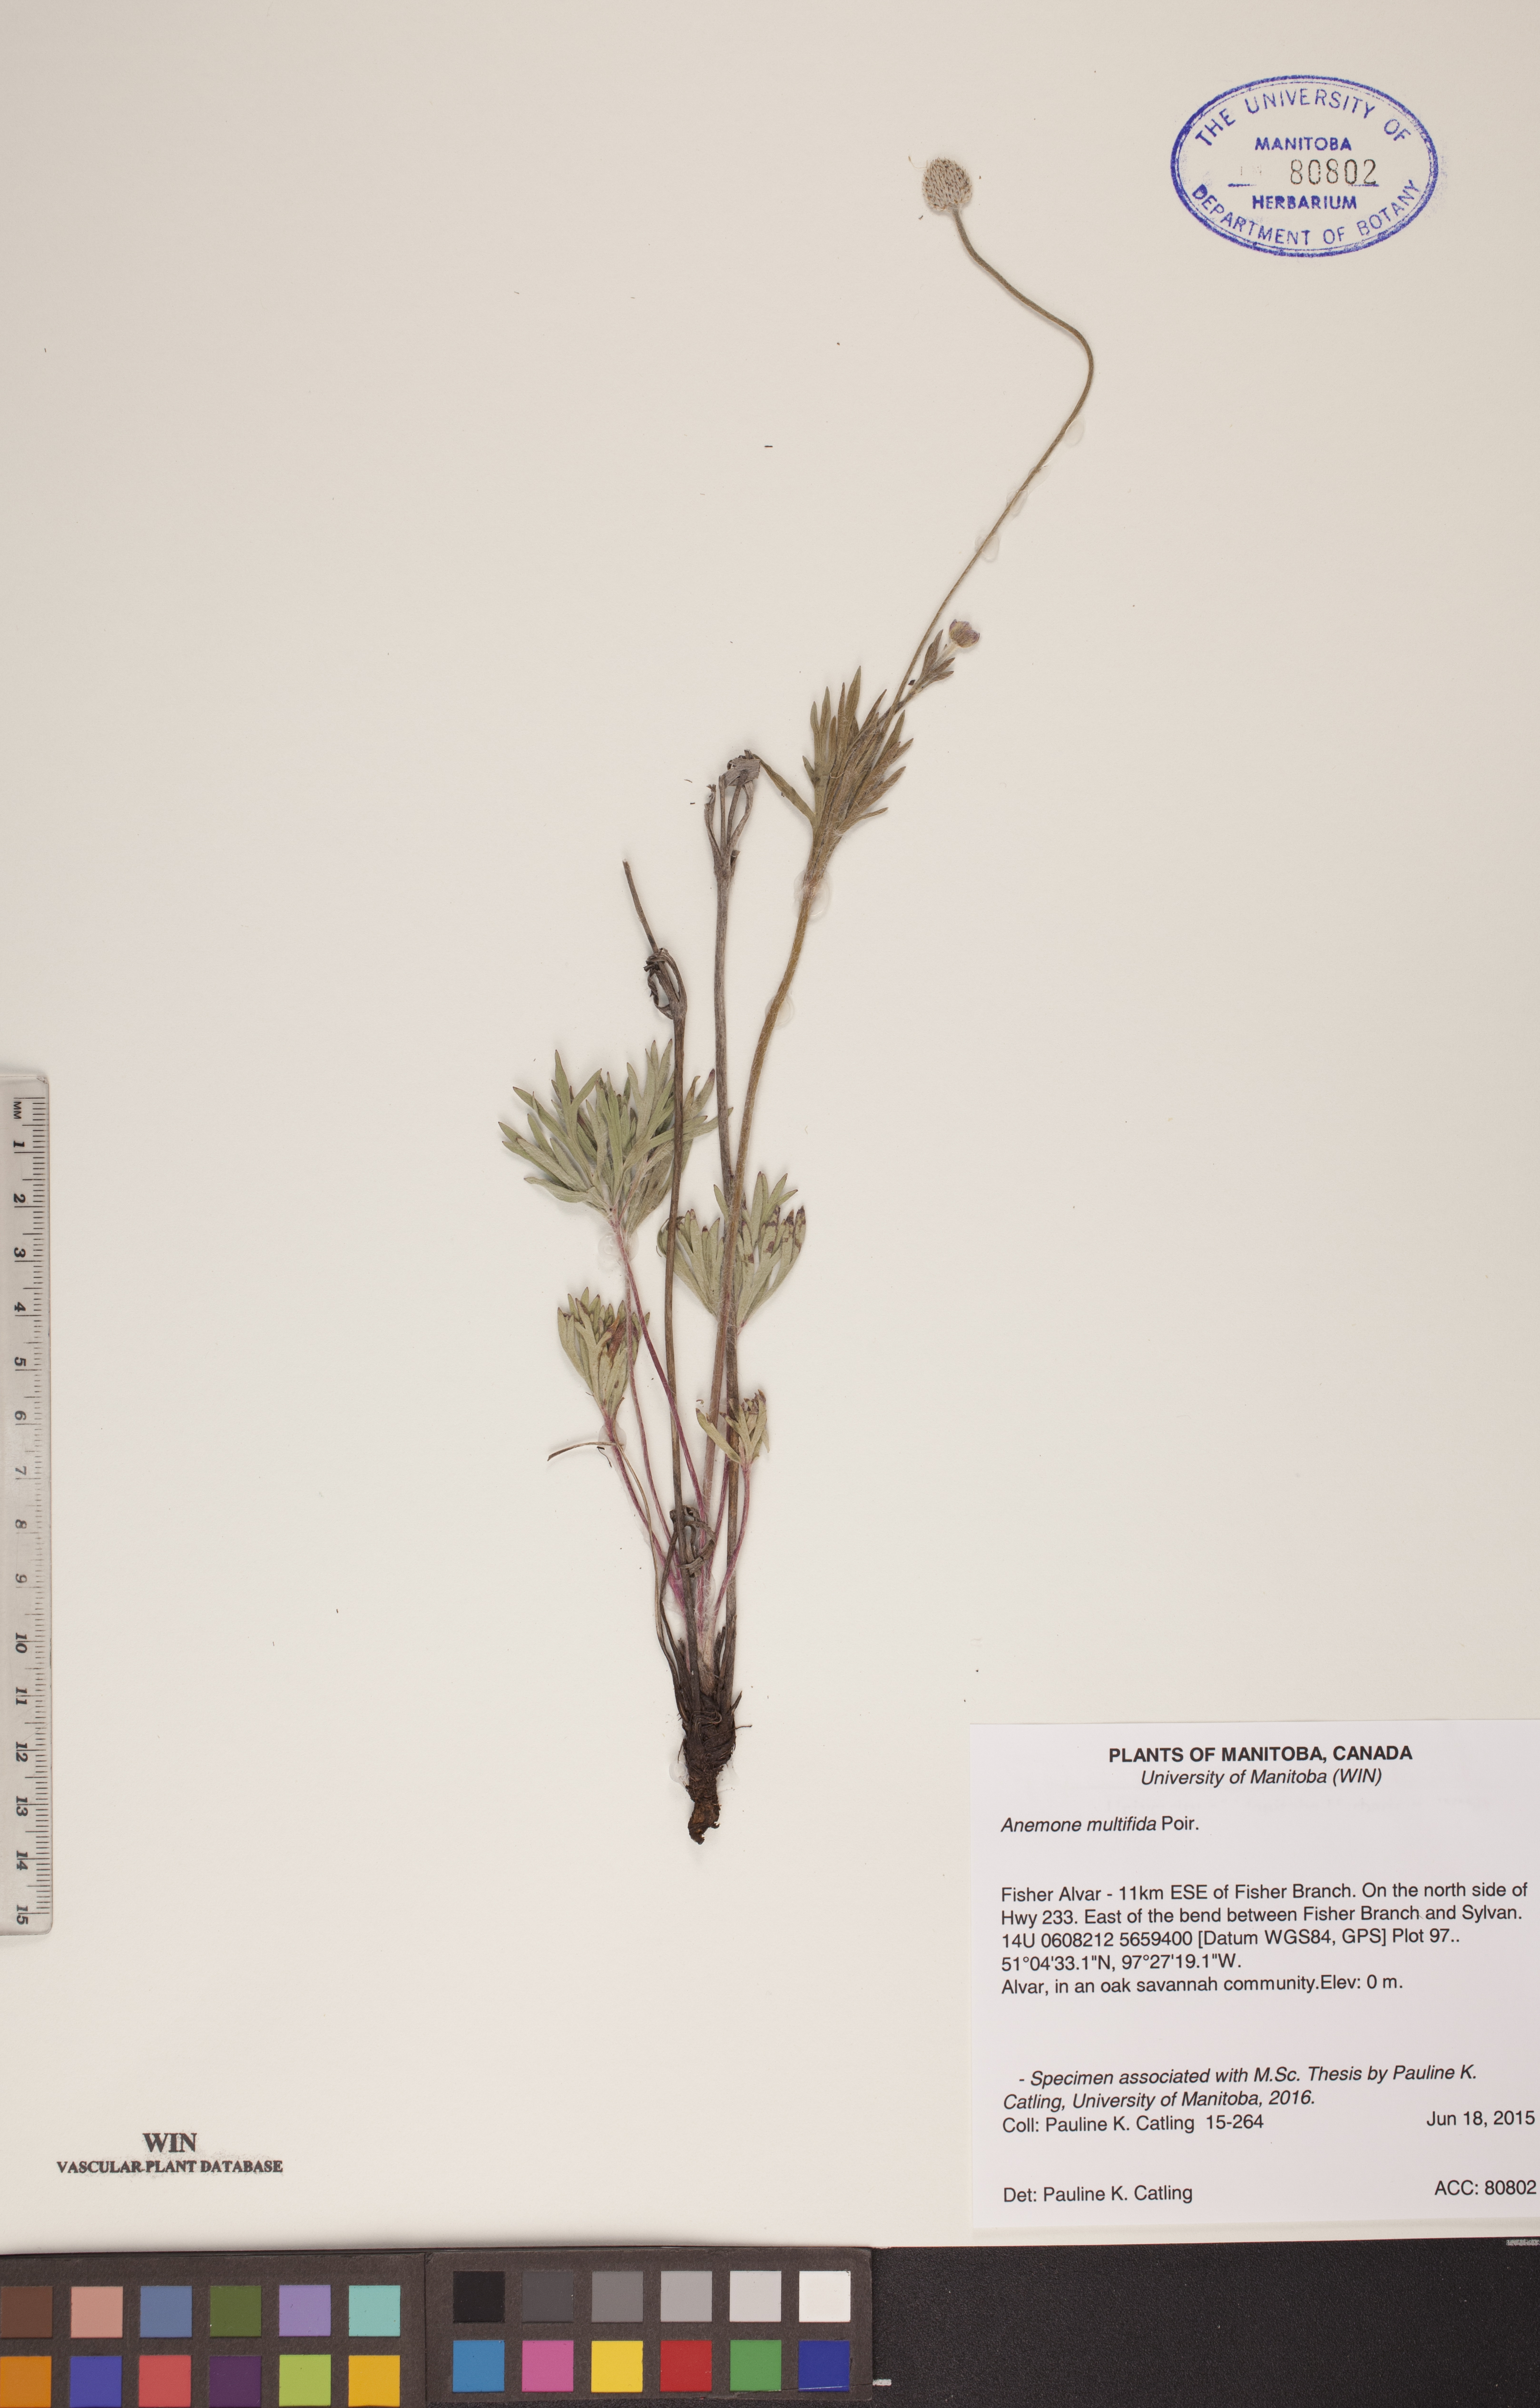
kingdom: Plantae
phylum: Tracheophyta
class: Magnoliopsida
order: Ranunculales
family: Ranunculaceae
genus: Anemone
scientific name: Anemone multifida
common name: Bird's-foot anemone
